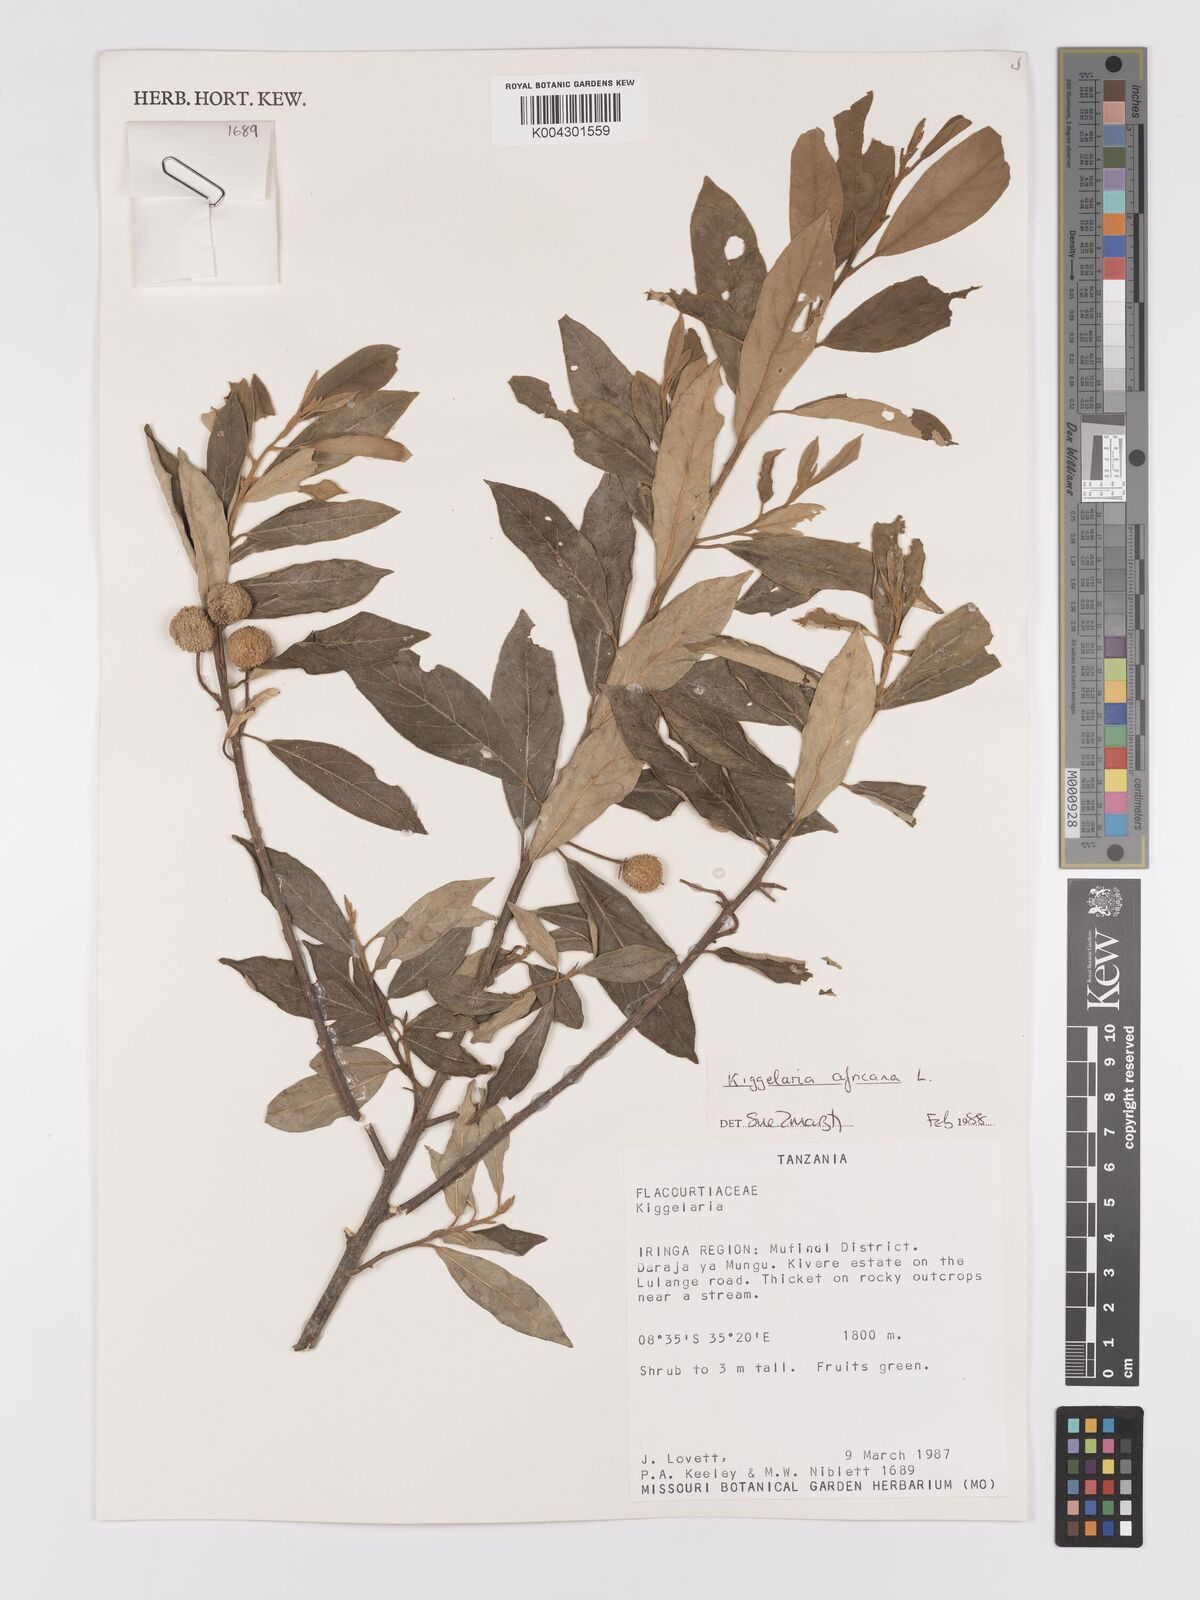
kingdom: Plantae
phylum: Tracheophyta
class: Magnoliopsida
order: Malpighiales
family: Achariaceae
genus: Kiggelaria
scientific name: Kiggelaria africana
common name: Wild peach
